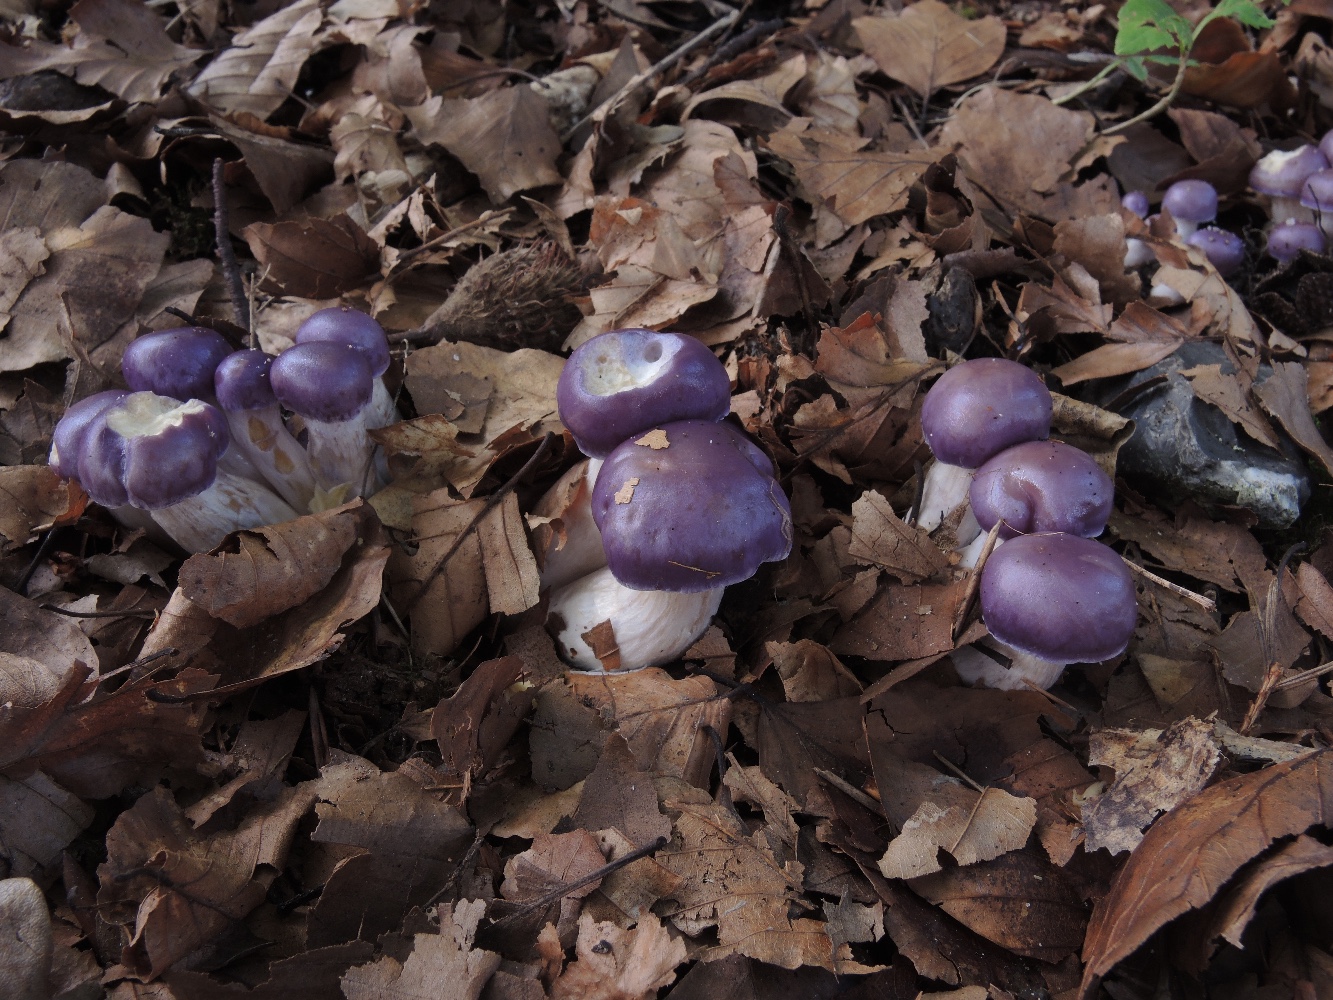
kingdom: Fungi
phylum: Basidiomycota
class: Agaricomycetes
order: Agaricales
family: Cortinariaceae
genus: Thaxterogaster
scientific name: Thaxterogaster croceocoeruleus
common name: blågullig slørhat
